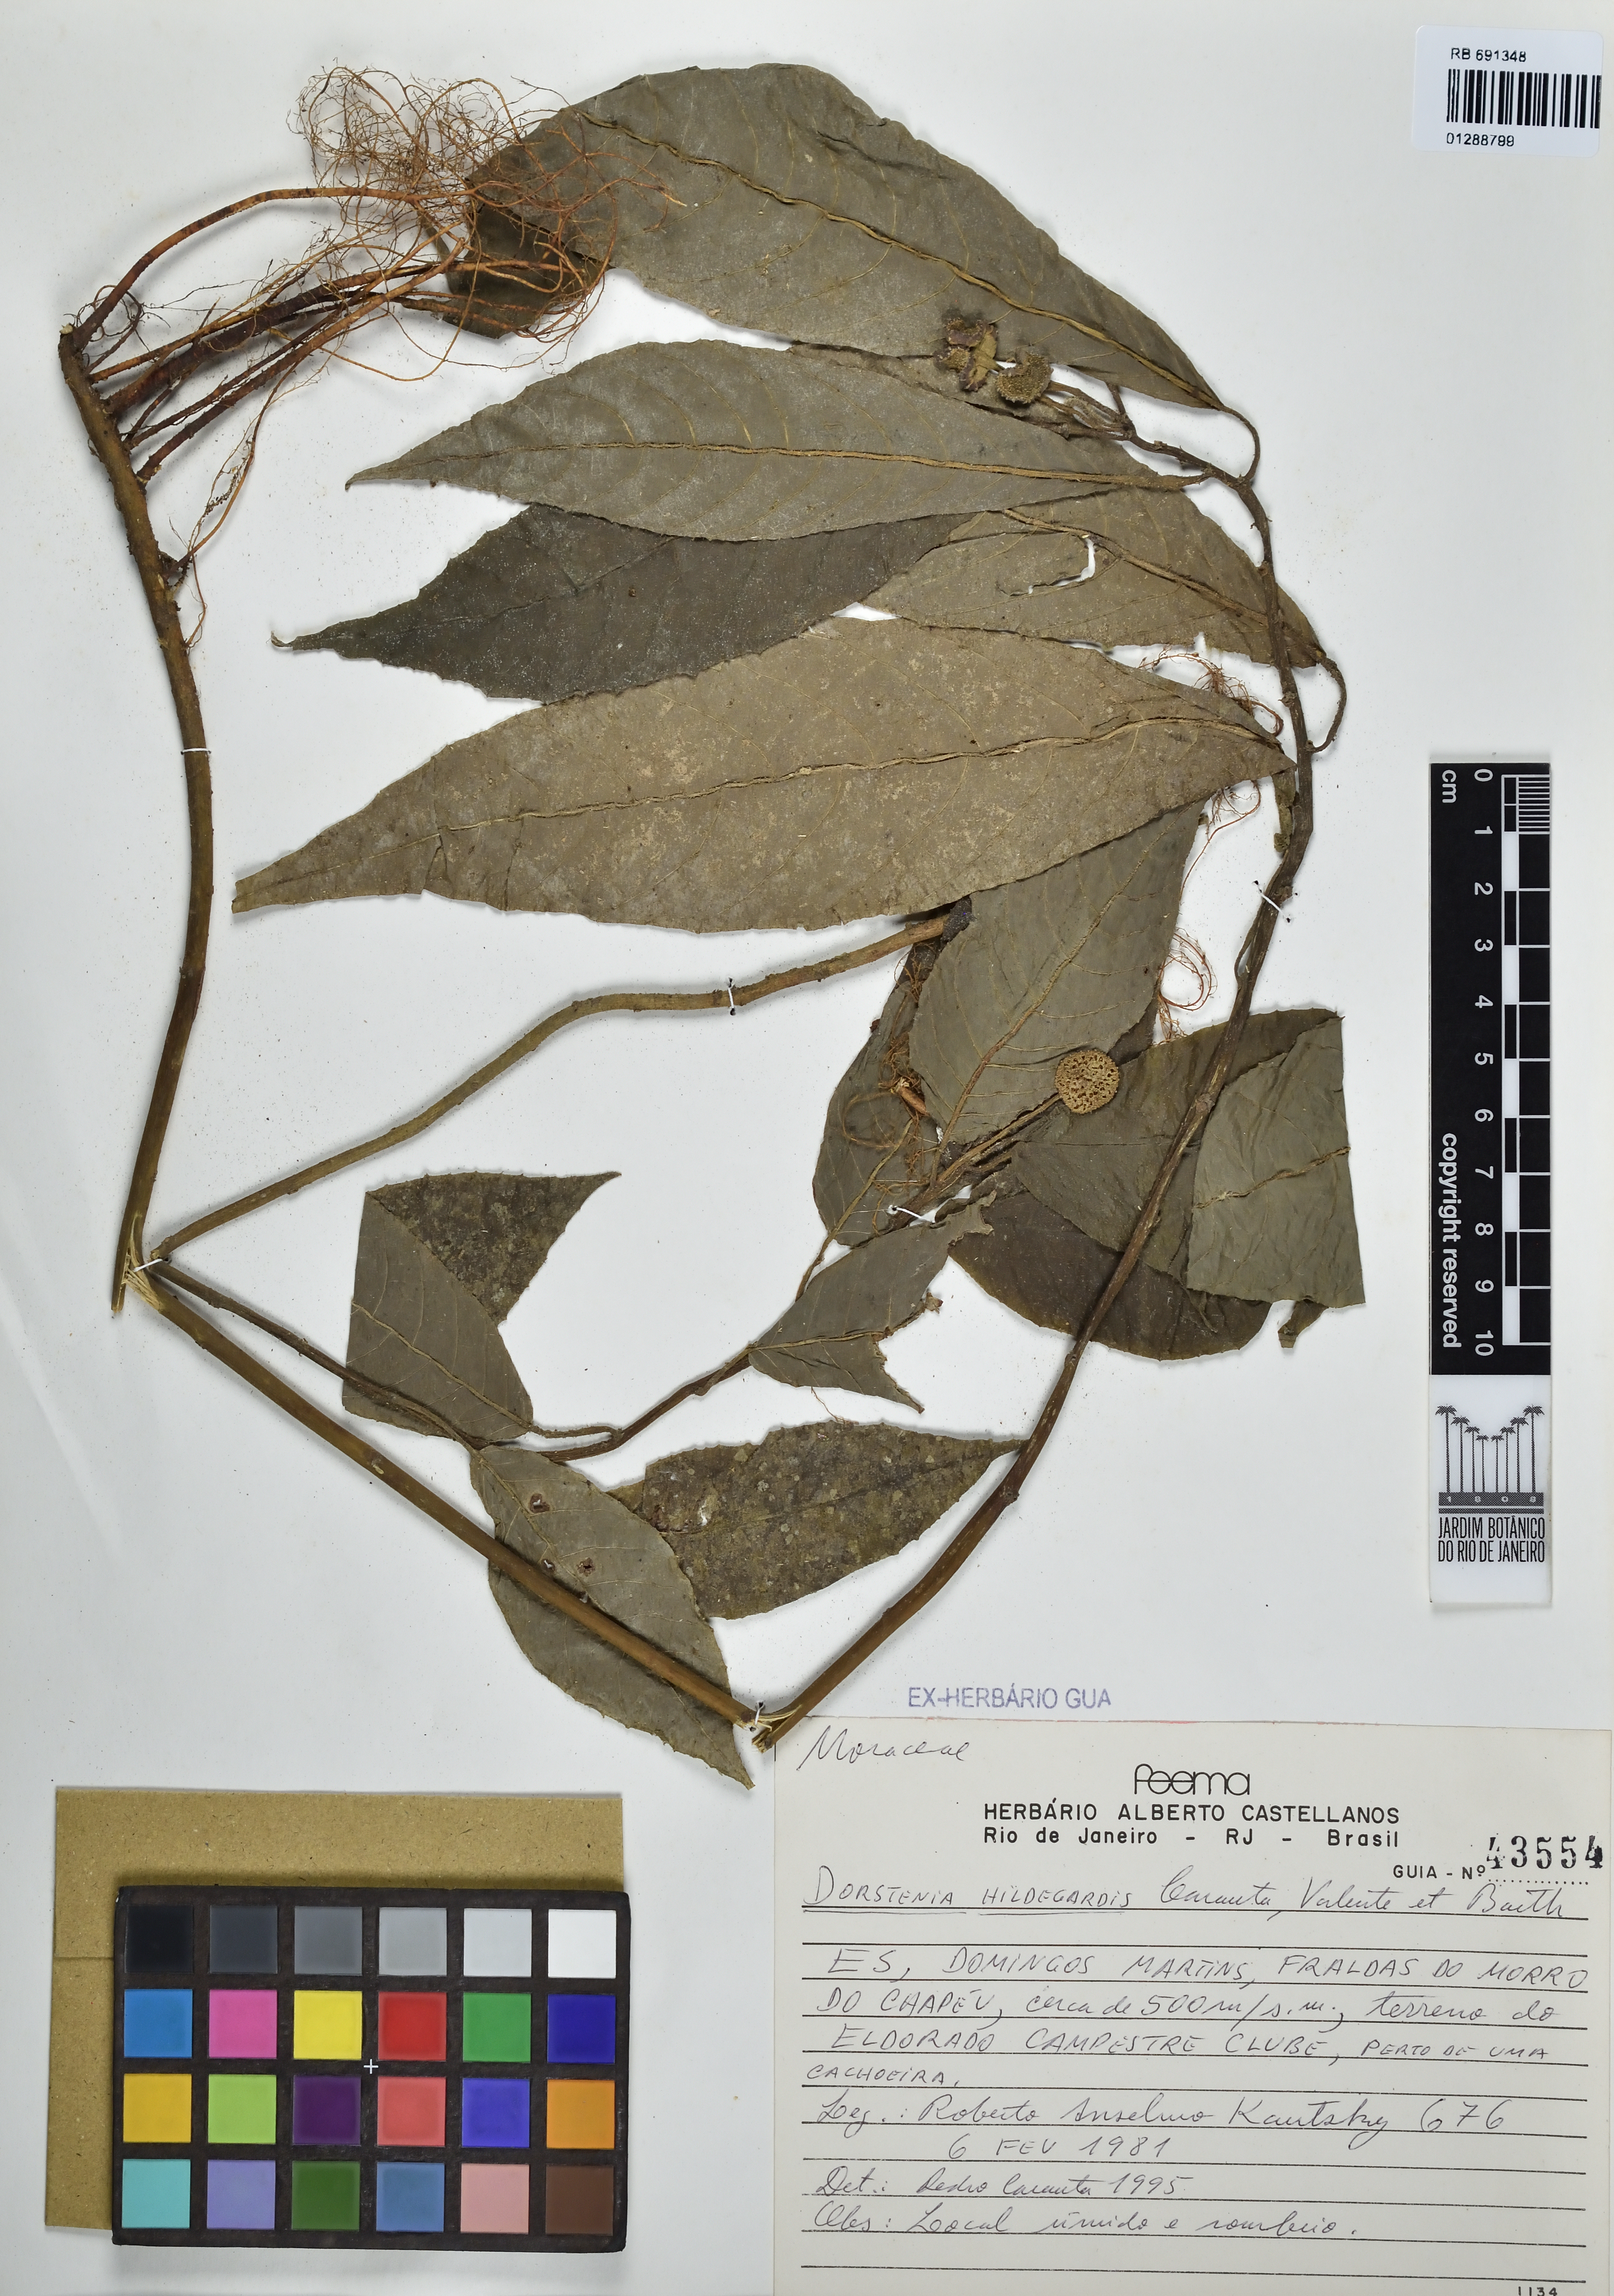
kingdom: Plantae
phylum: Tracheophyta
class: Magnoliopsida
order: Rosales
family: Moraceae
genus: Dorstenia
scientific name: Dorstenia hildegardis
